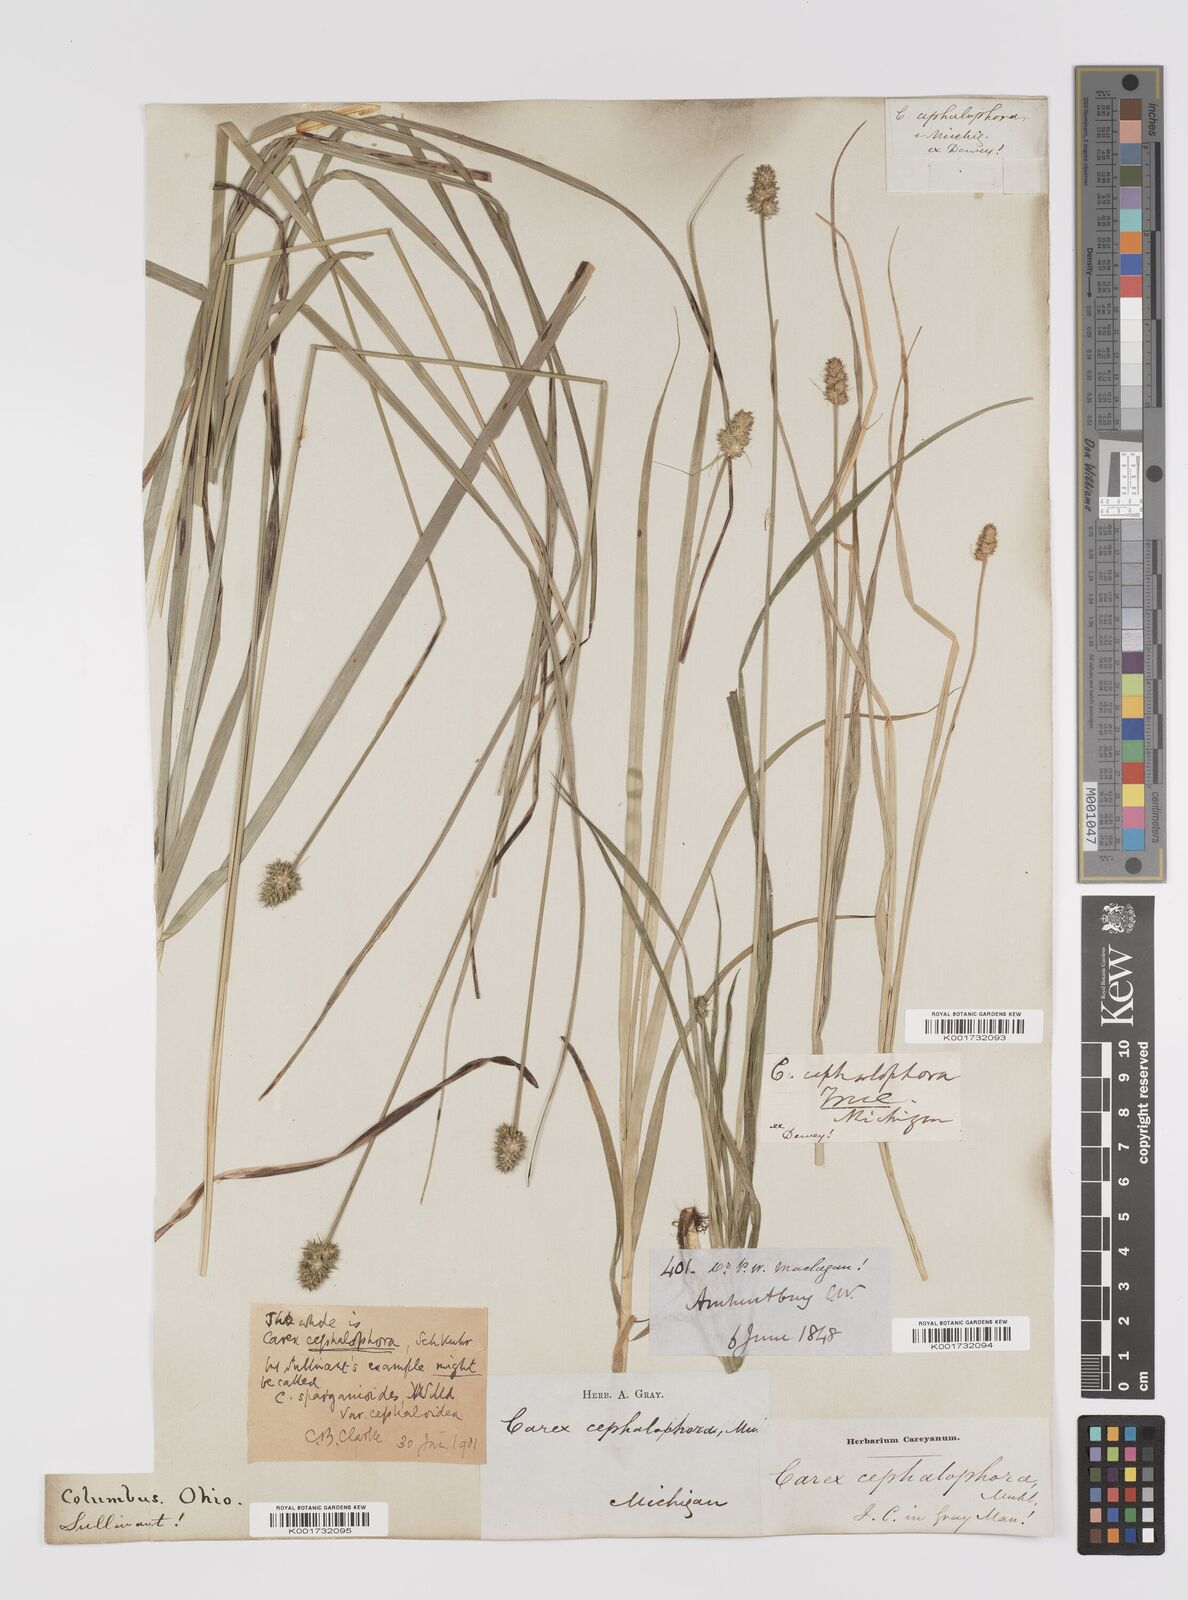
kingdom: Plantae
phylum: Tracheophyta
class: Liliopsida
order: Poales
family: Cyperaceae
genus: Carex
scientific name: Carex cephalophora
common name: Oval-headed sedge
